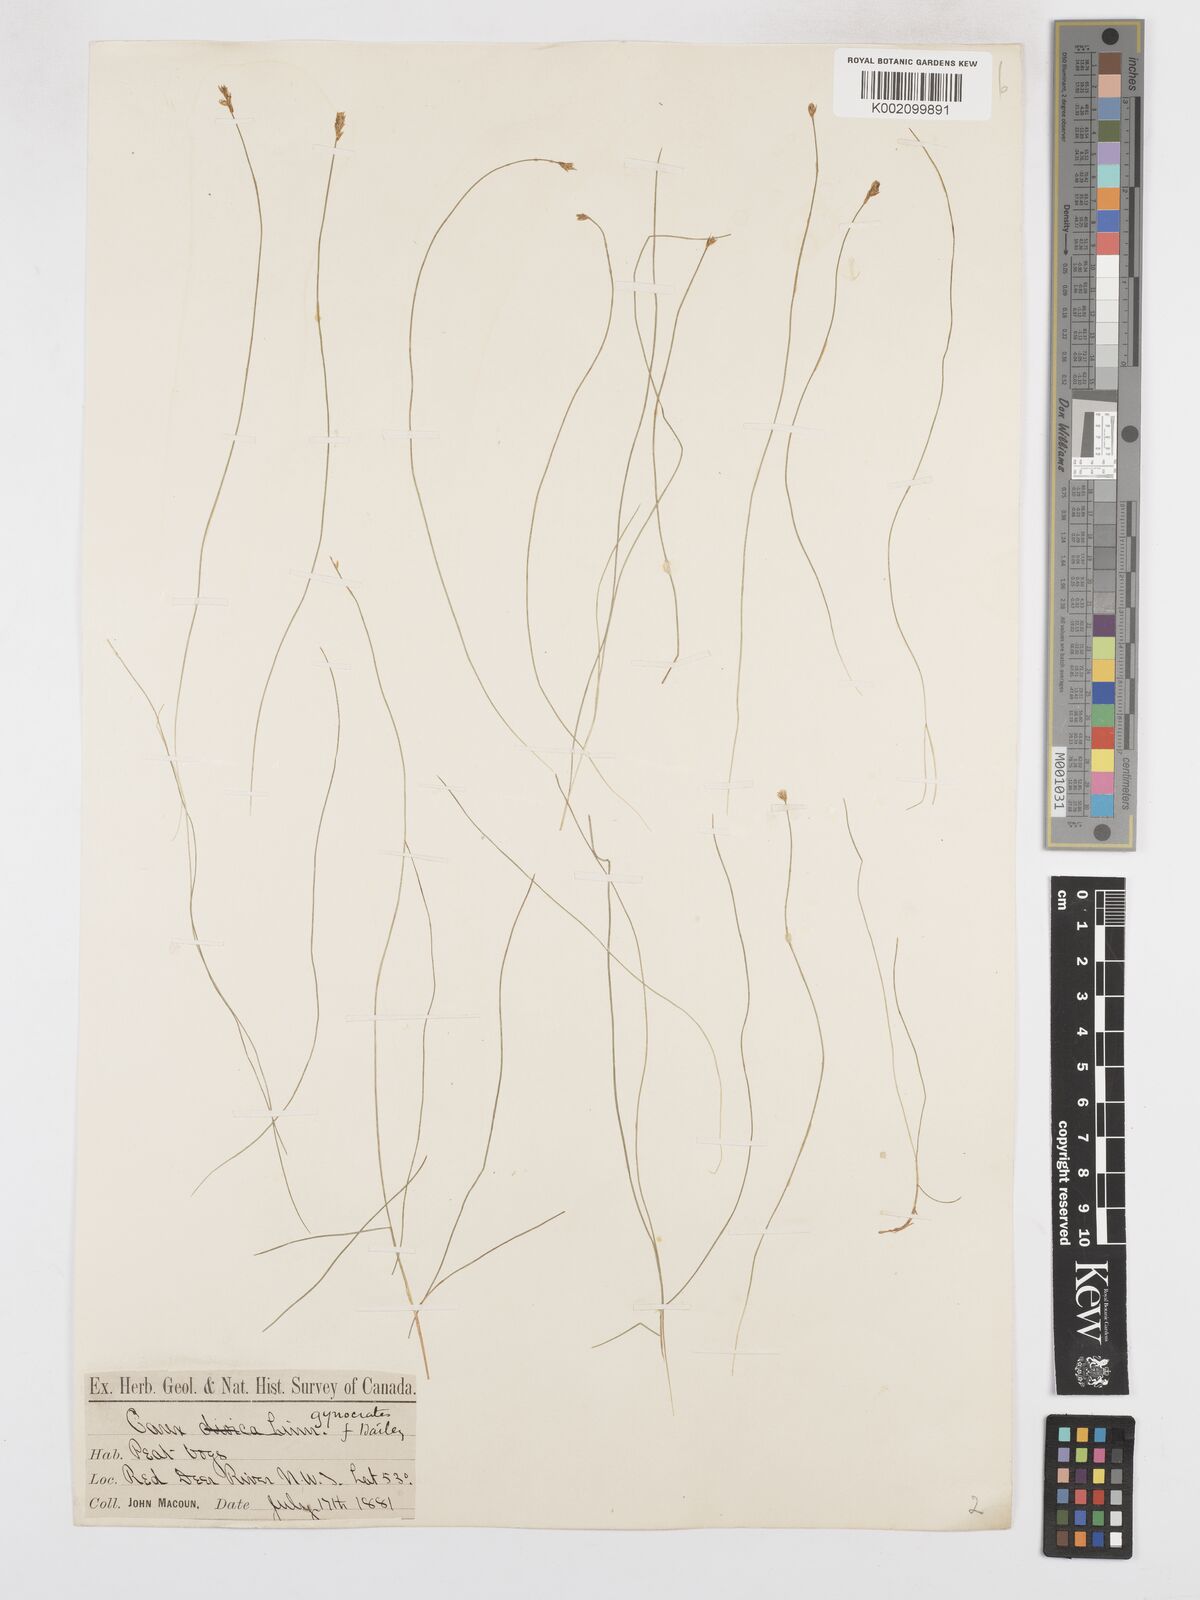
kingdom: Plantae
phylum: Tracheophyta
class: Liliopsida
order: Poales
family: Cyperaceae
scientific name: Cyperaceae
